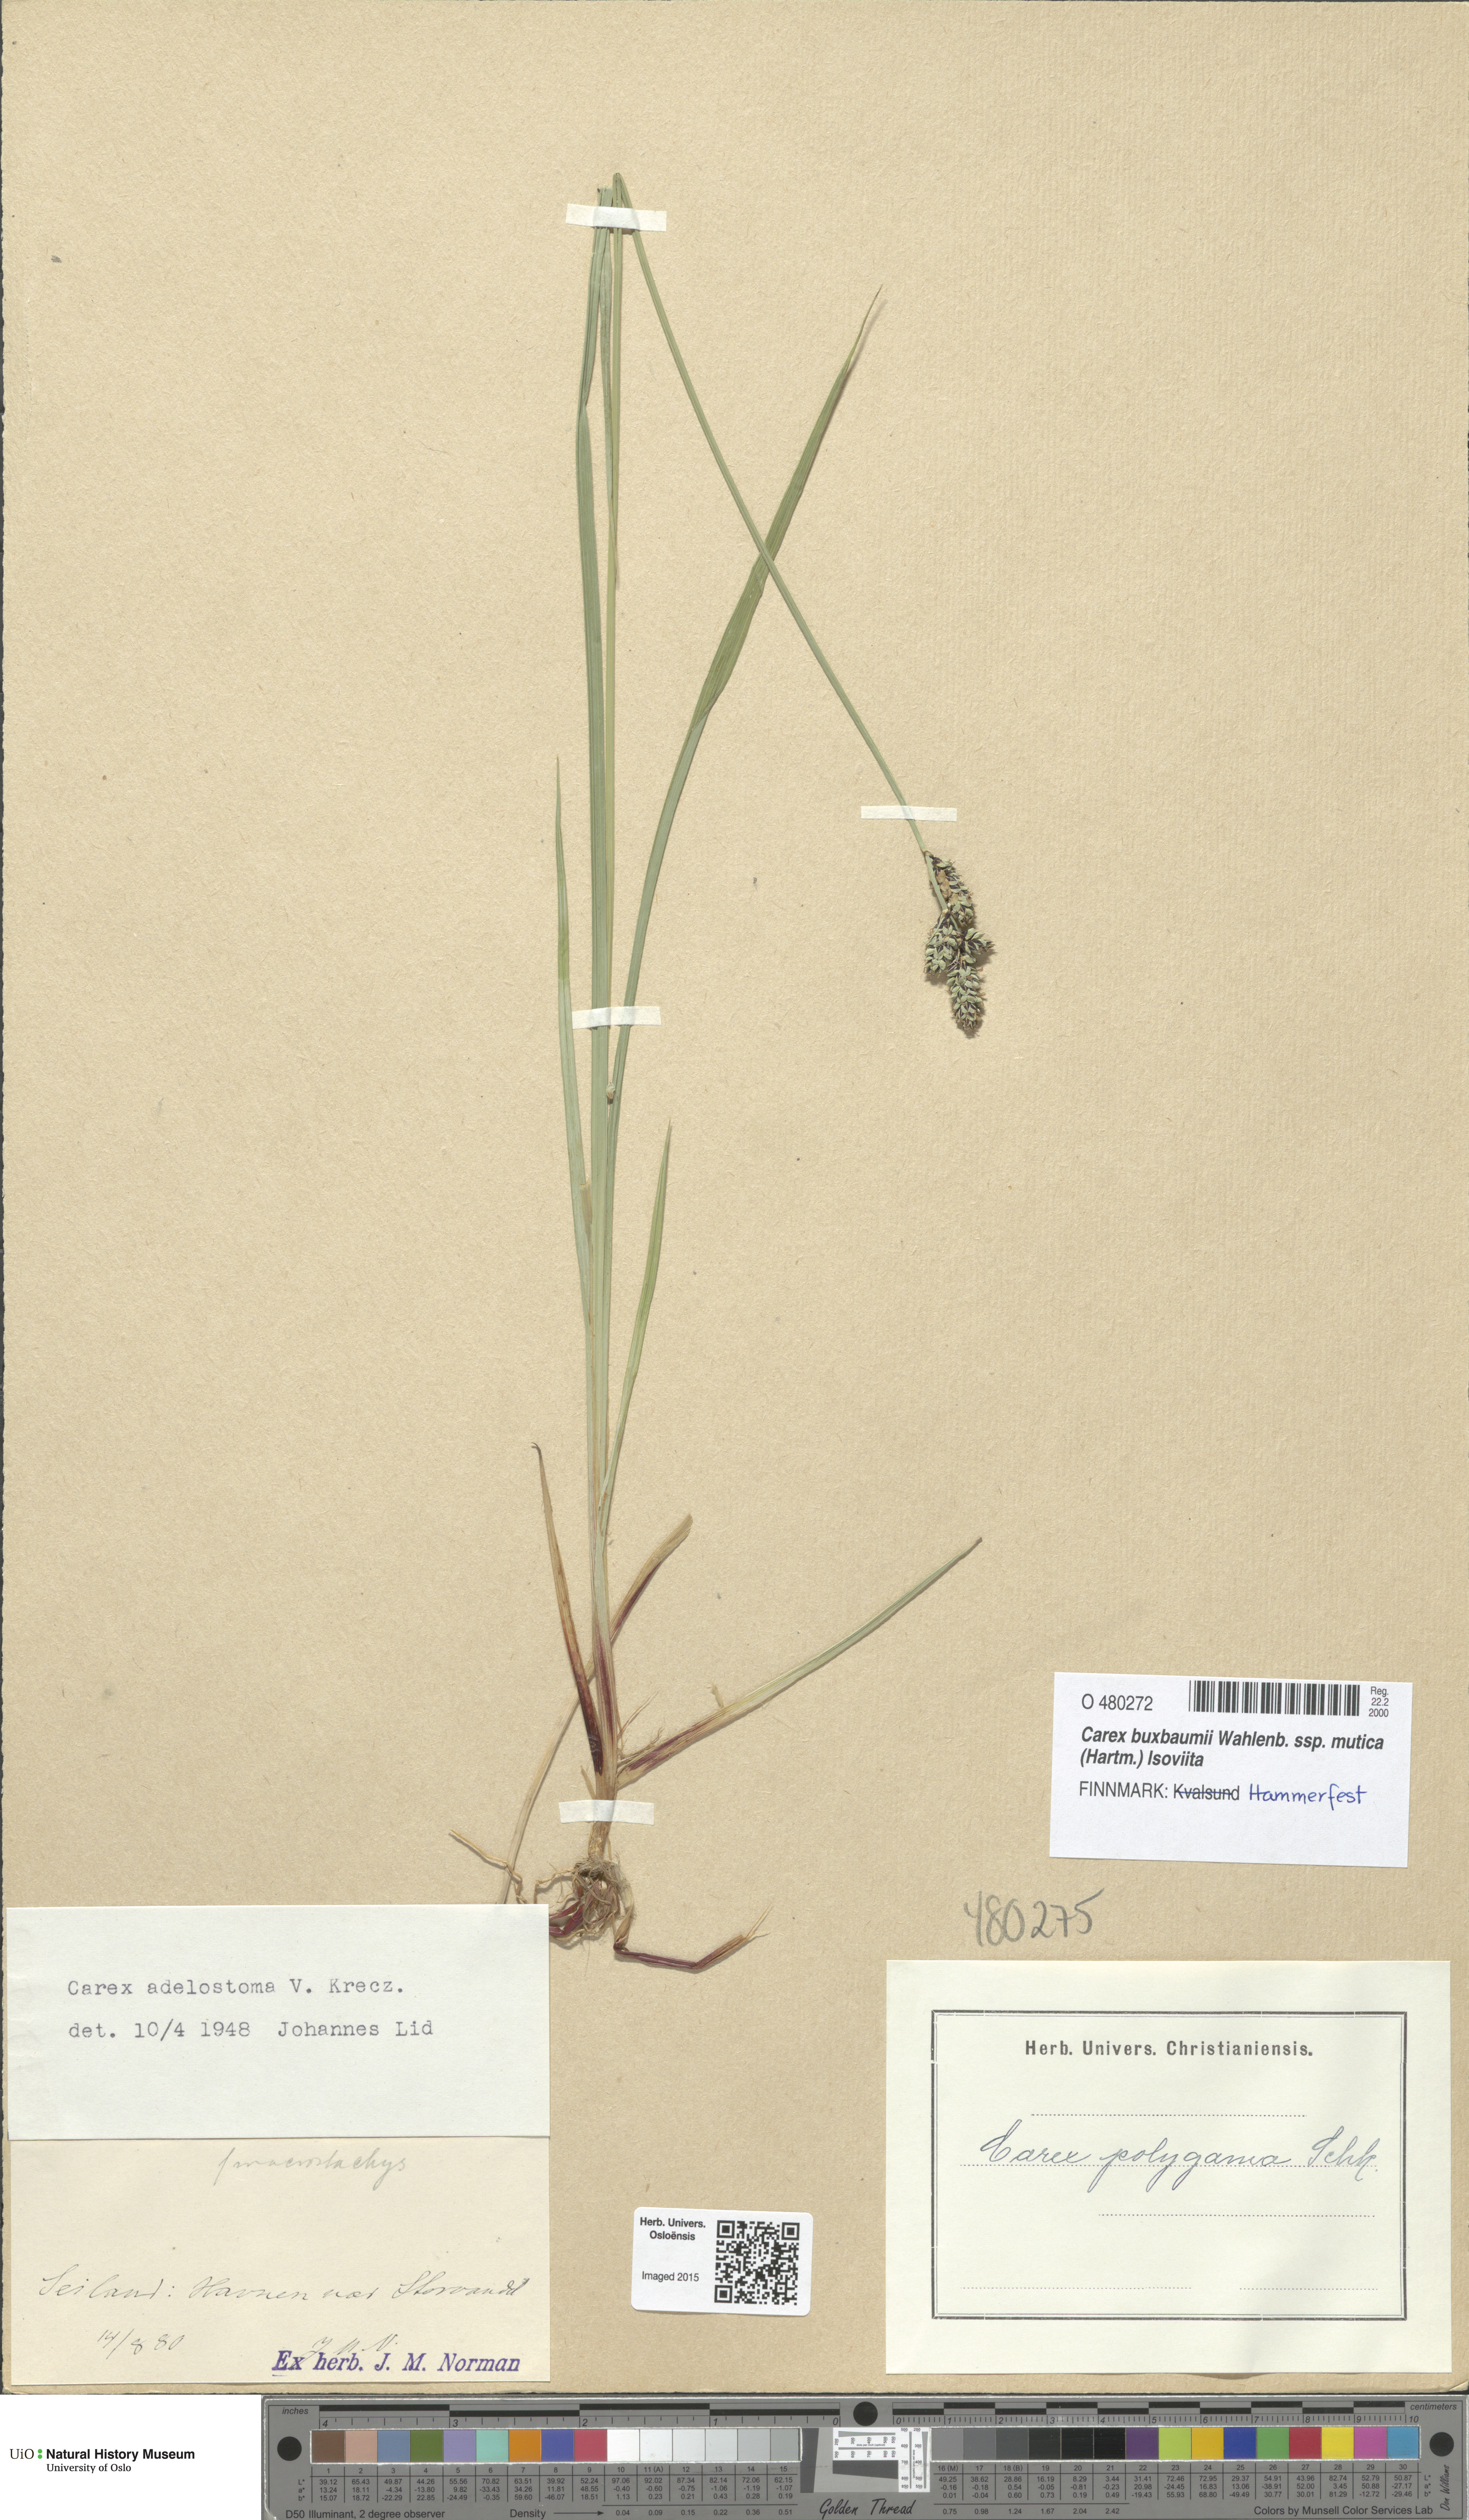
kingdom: Plantae
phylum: Tracheophyta
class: Liliopsida
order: Poales
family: Cyperaceae
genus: Carex
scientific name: Carex adelostoma
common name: Circumpolar sedge
